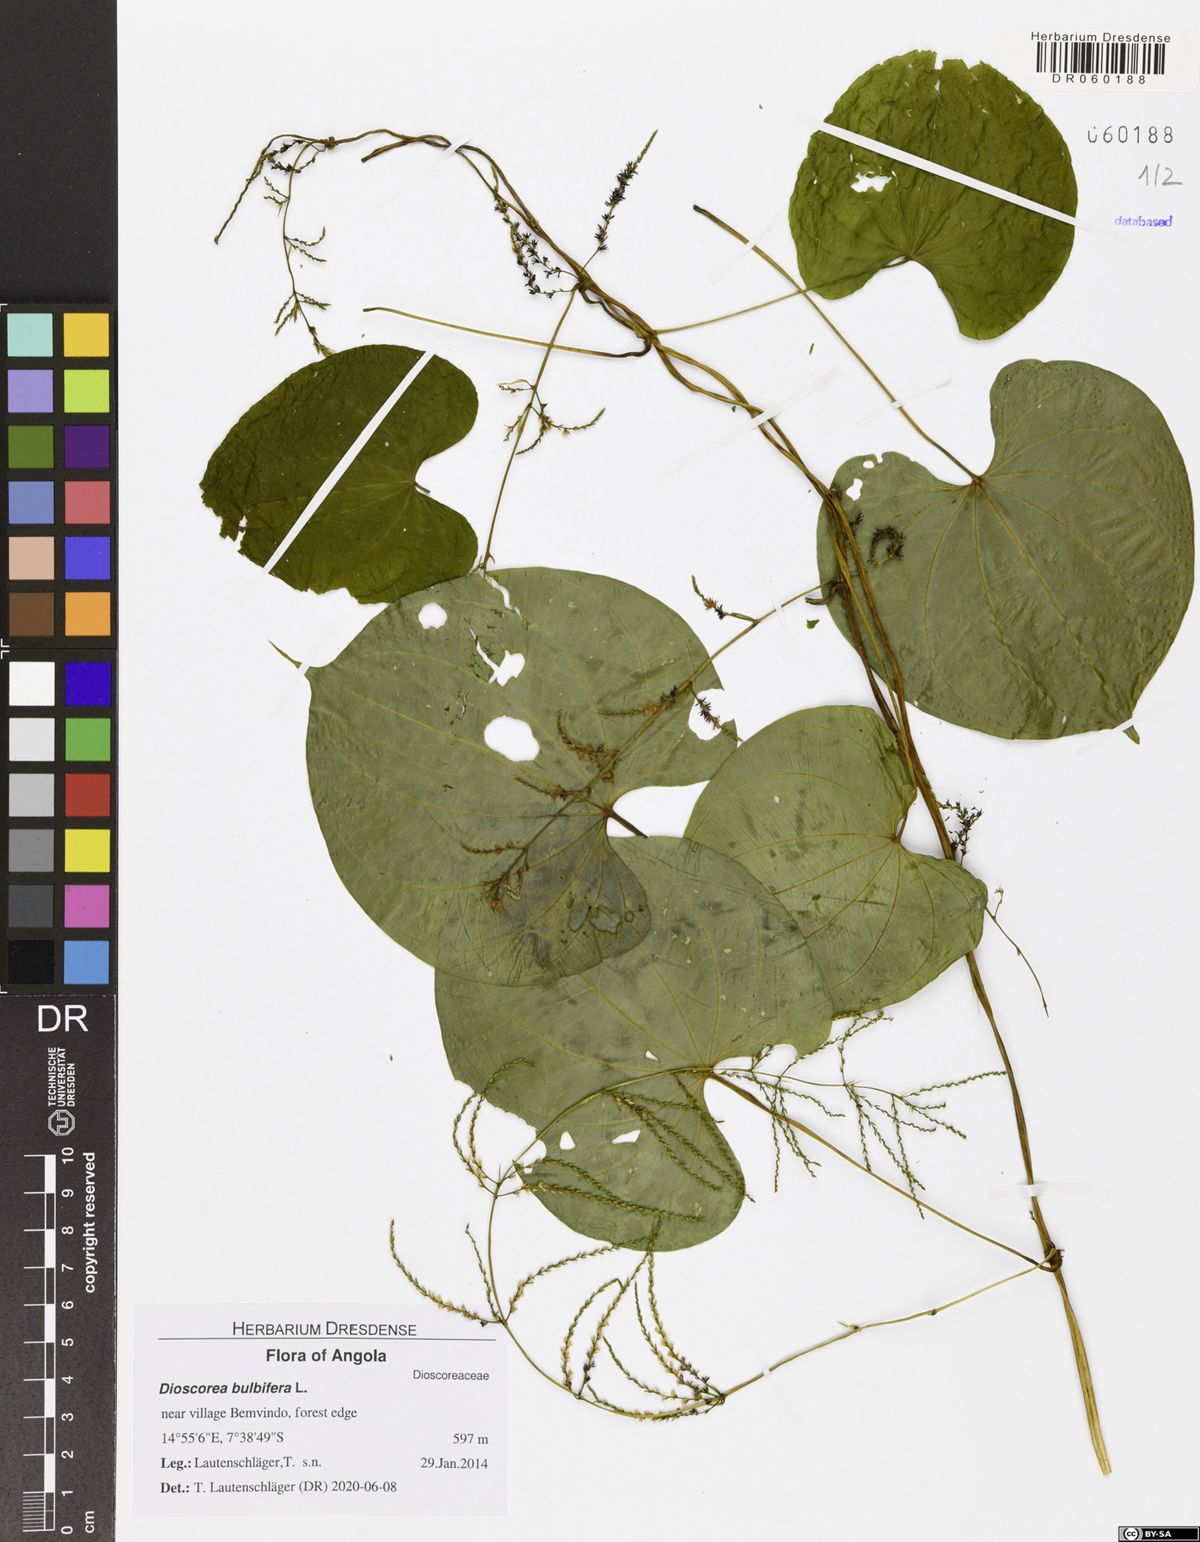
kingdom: Plantae
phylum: Tracheophyta
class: Liliopsida
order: Dioscoreales
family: Dioscoreaceae
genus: Dioscorea
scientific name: Dioscorea bulbifera
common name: Air yam
